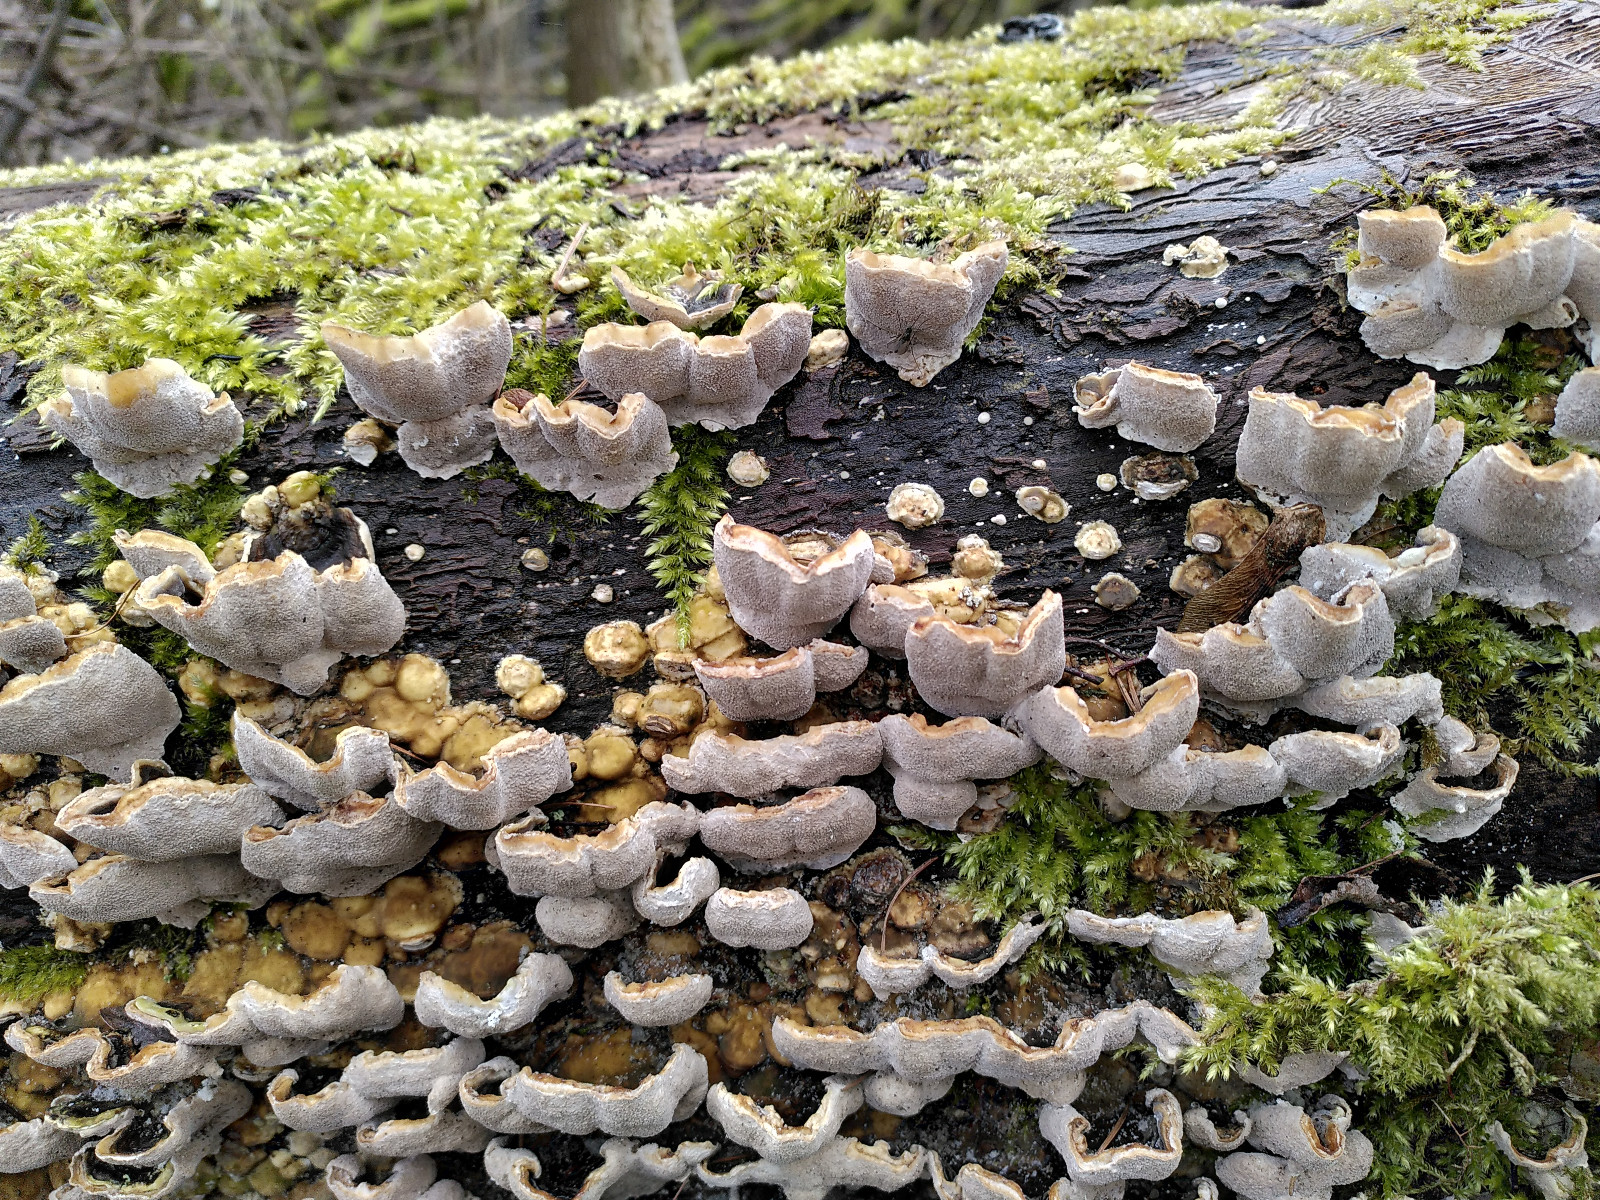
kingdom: Fungi
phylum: Basidiomycota
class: Agaricomycetes
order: Polyporales
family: Polyporaceae
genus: Trametes
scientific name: Trametes
